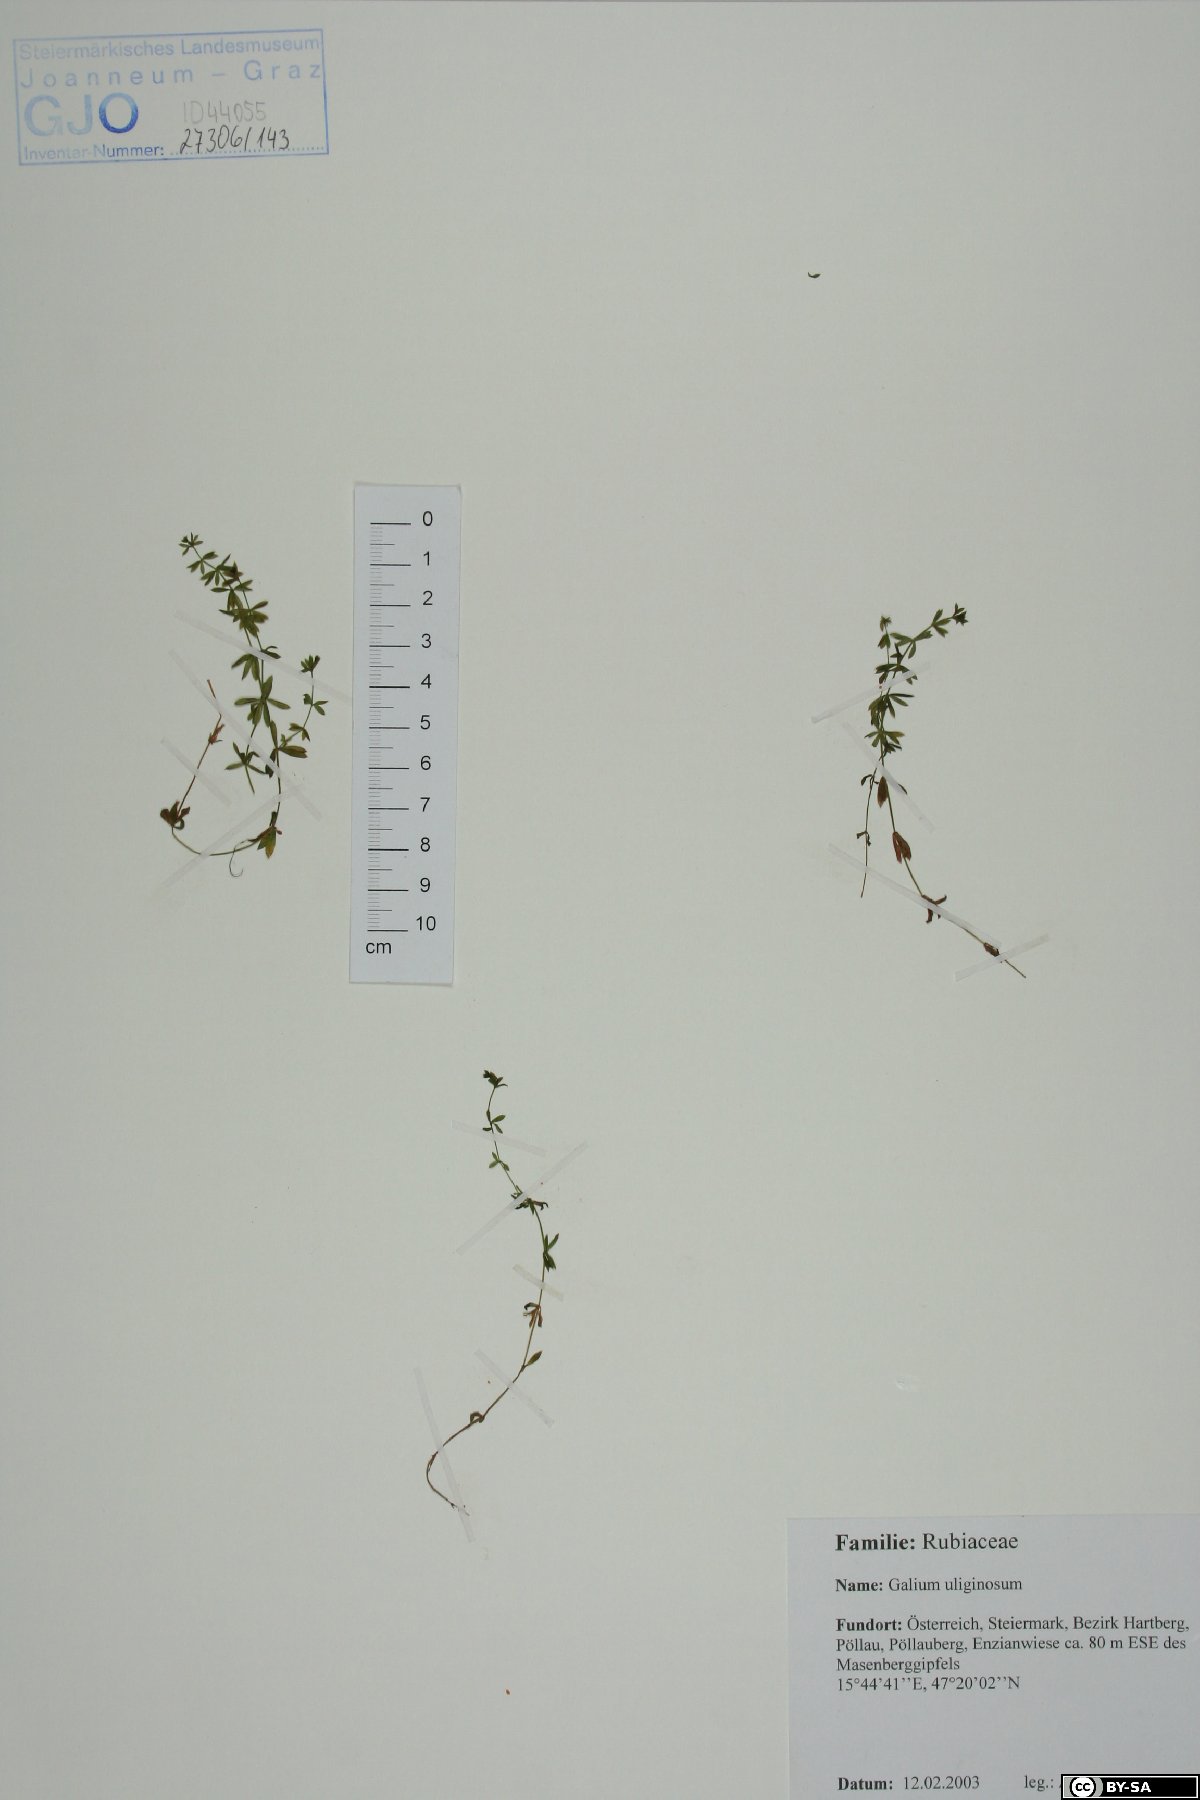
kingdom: Plantae
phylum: Tracheophyta
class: Magnoliopsida
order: Gentianales
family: Rubiaceae
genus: Galium
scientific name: Galium uliginosum
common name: Fen bedstraw
